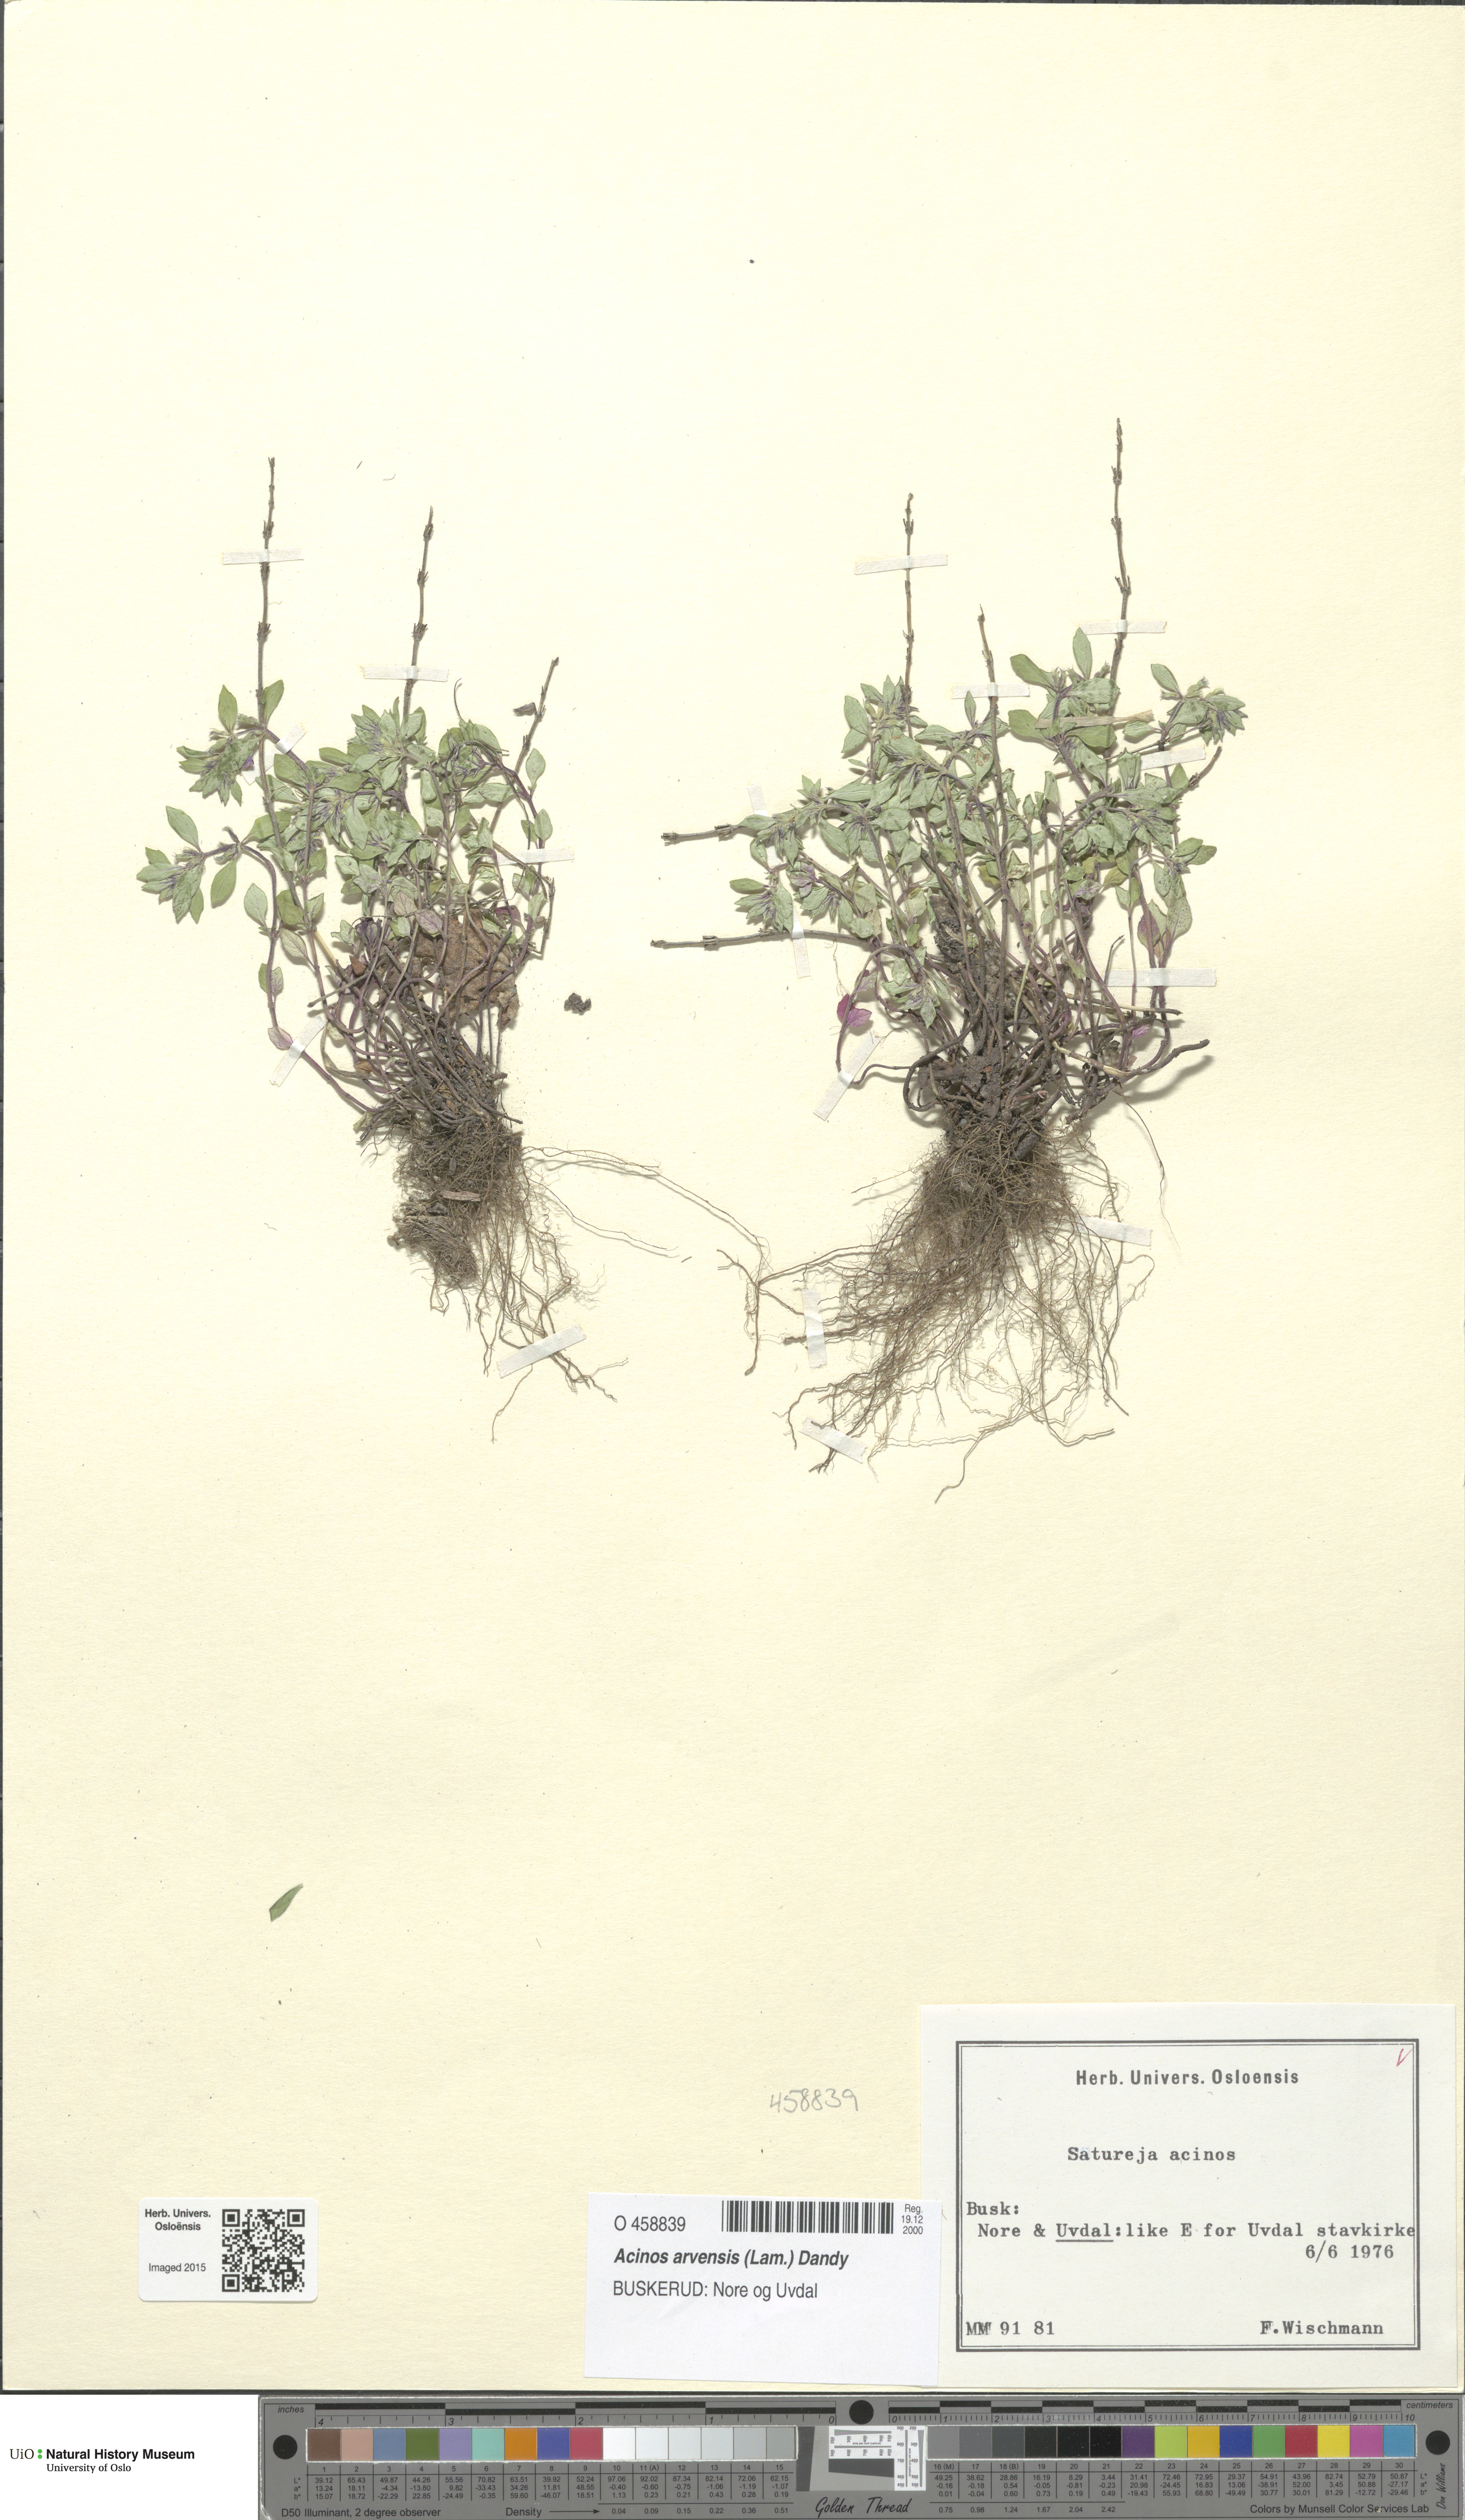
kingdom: Plantae
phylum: Tracheophyta
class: Magnoliopsida
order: Lamiales
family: Lamiaceae
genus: Clinopodium
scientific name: Clinopodium acinos
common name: Basil thyme
